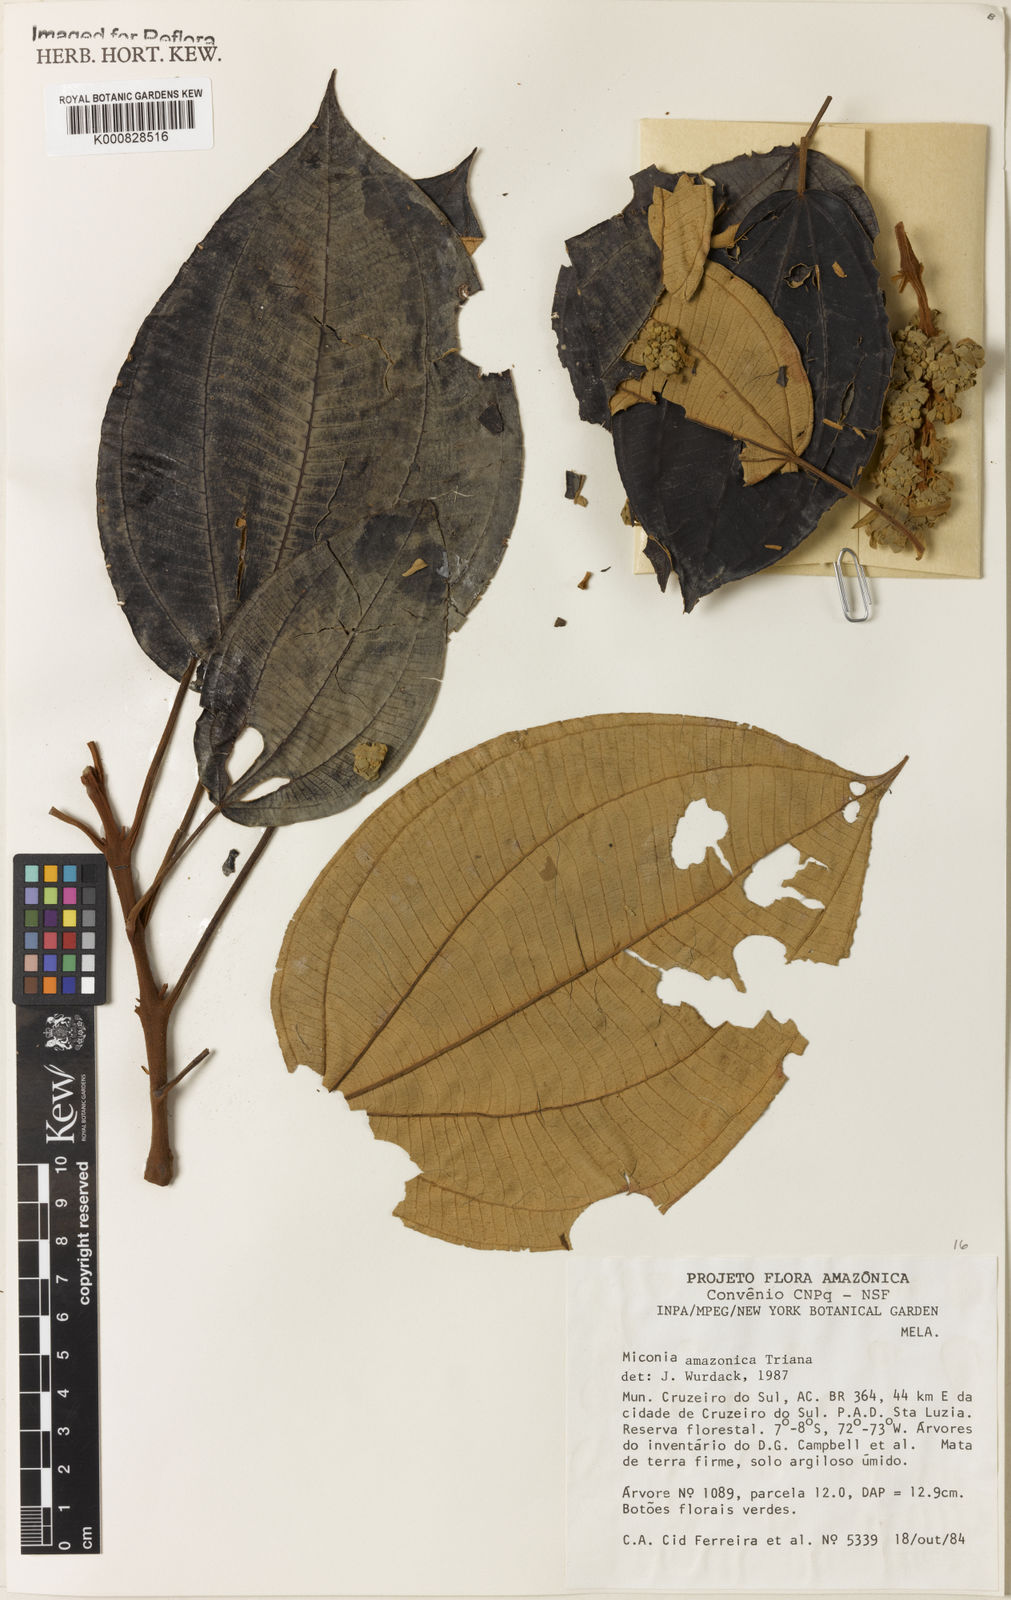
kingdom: Plantae
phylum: Tracheophyta
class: Magnoliopsida
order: Myrtales
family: Melastomataceae
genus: Miconia
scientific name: Miconia amazonica
